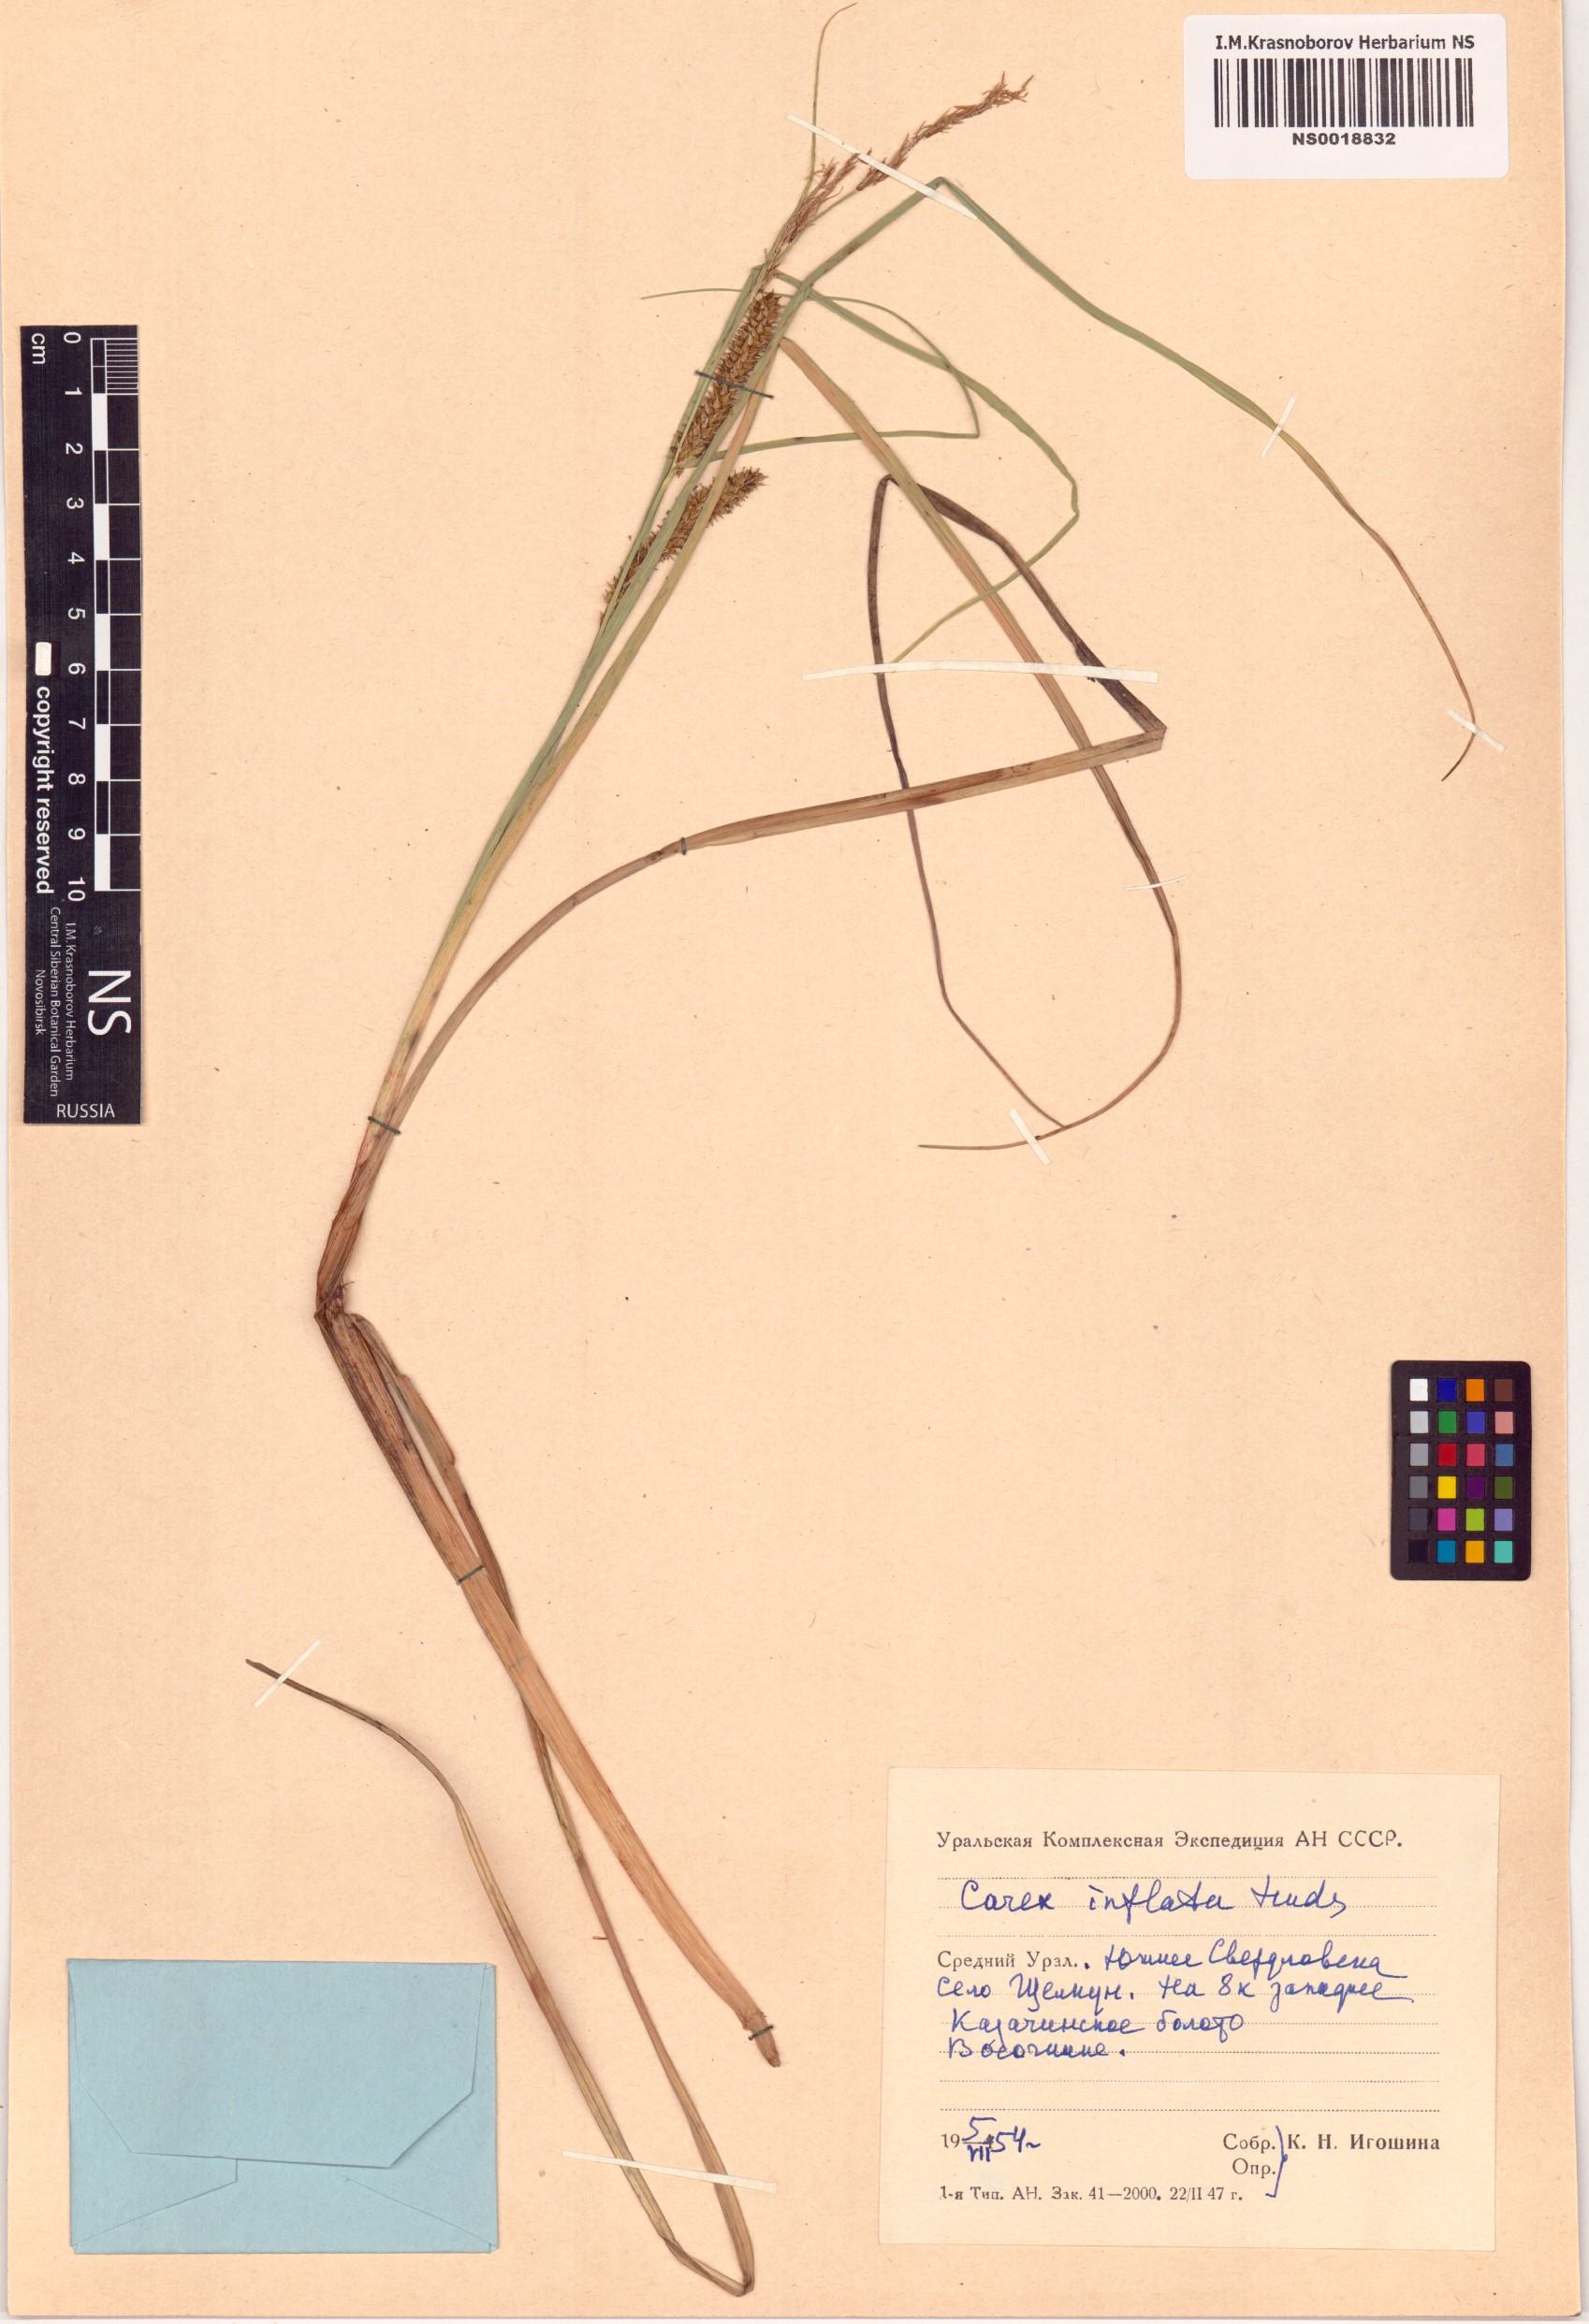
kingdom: Plantae
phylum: Tracheophyta
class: Liliopsida
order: Poales
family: Cyperaceae
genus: Carex
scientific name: Carex rostrata
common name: Bottle sedge
